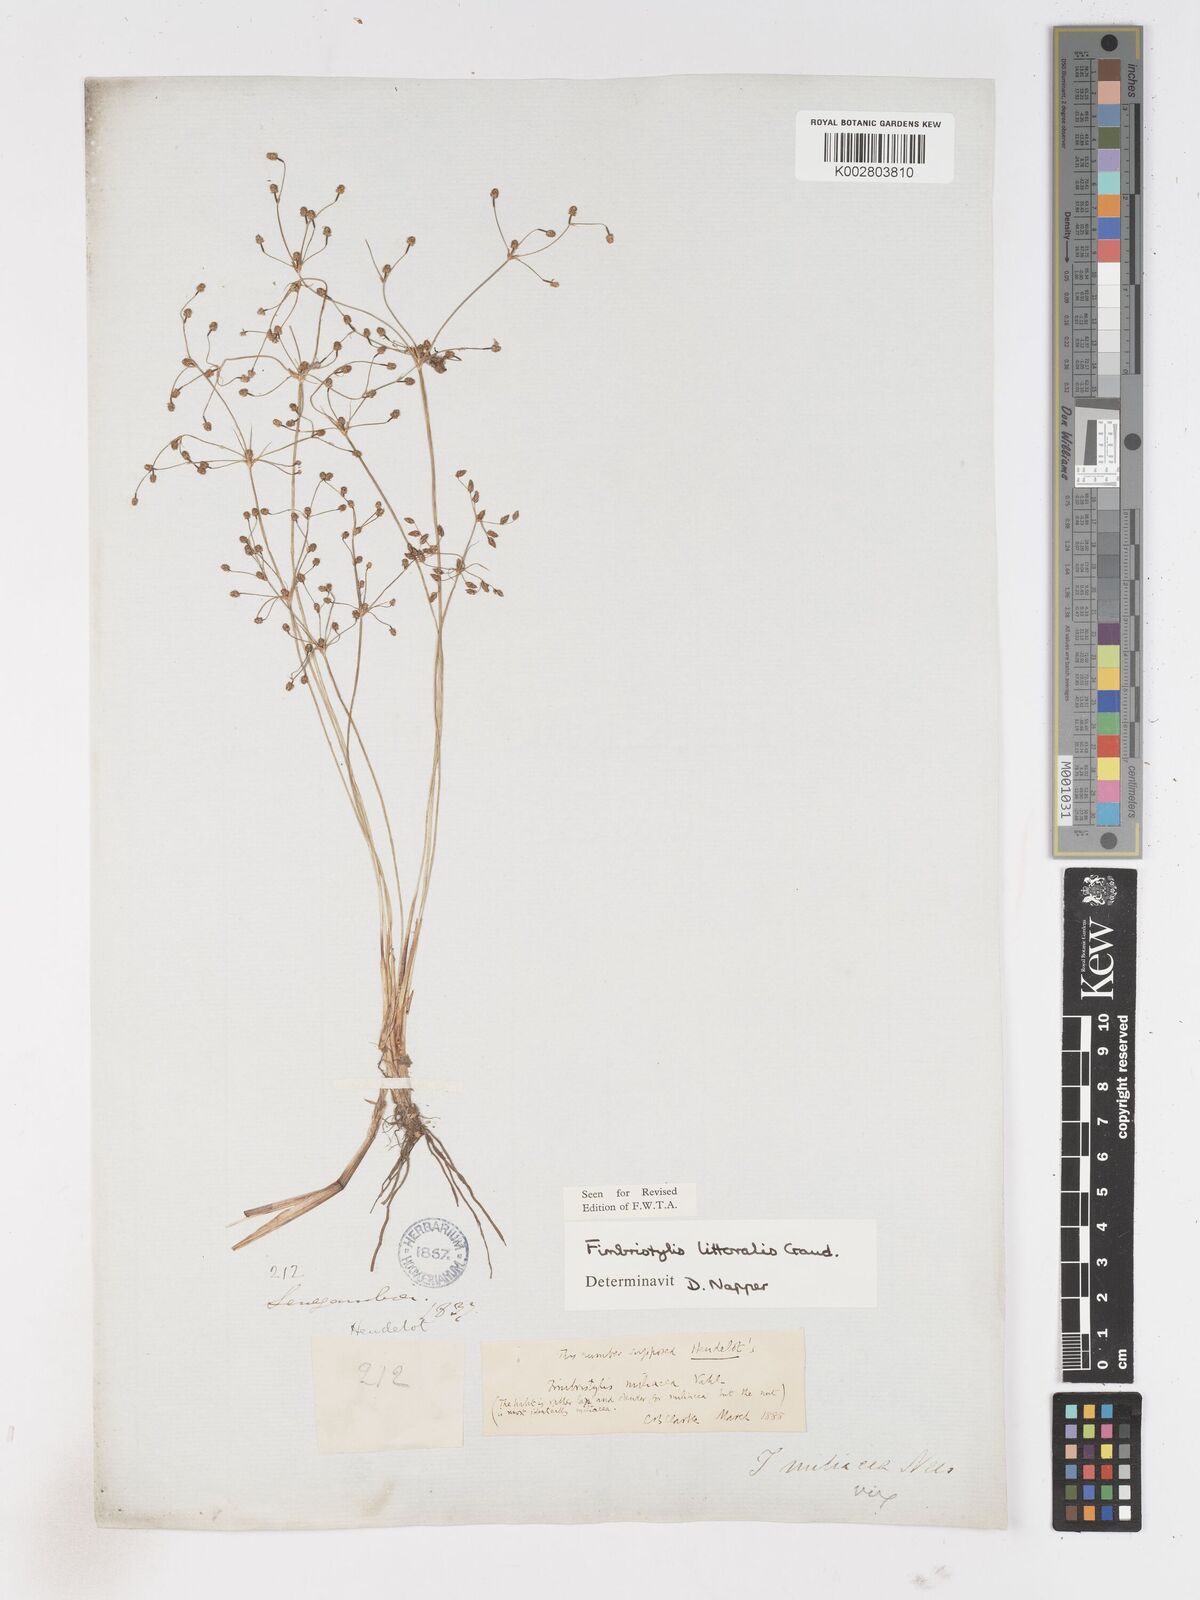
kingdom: Plantae
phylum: Tracheophyta
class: Liliopsida
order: Poales
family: Cyperaceae
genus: Fimbristylis
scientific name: Fimbristylis littoralis
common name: Fimbry
